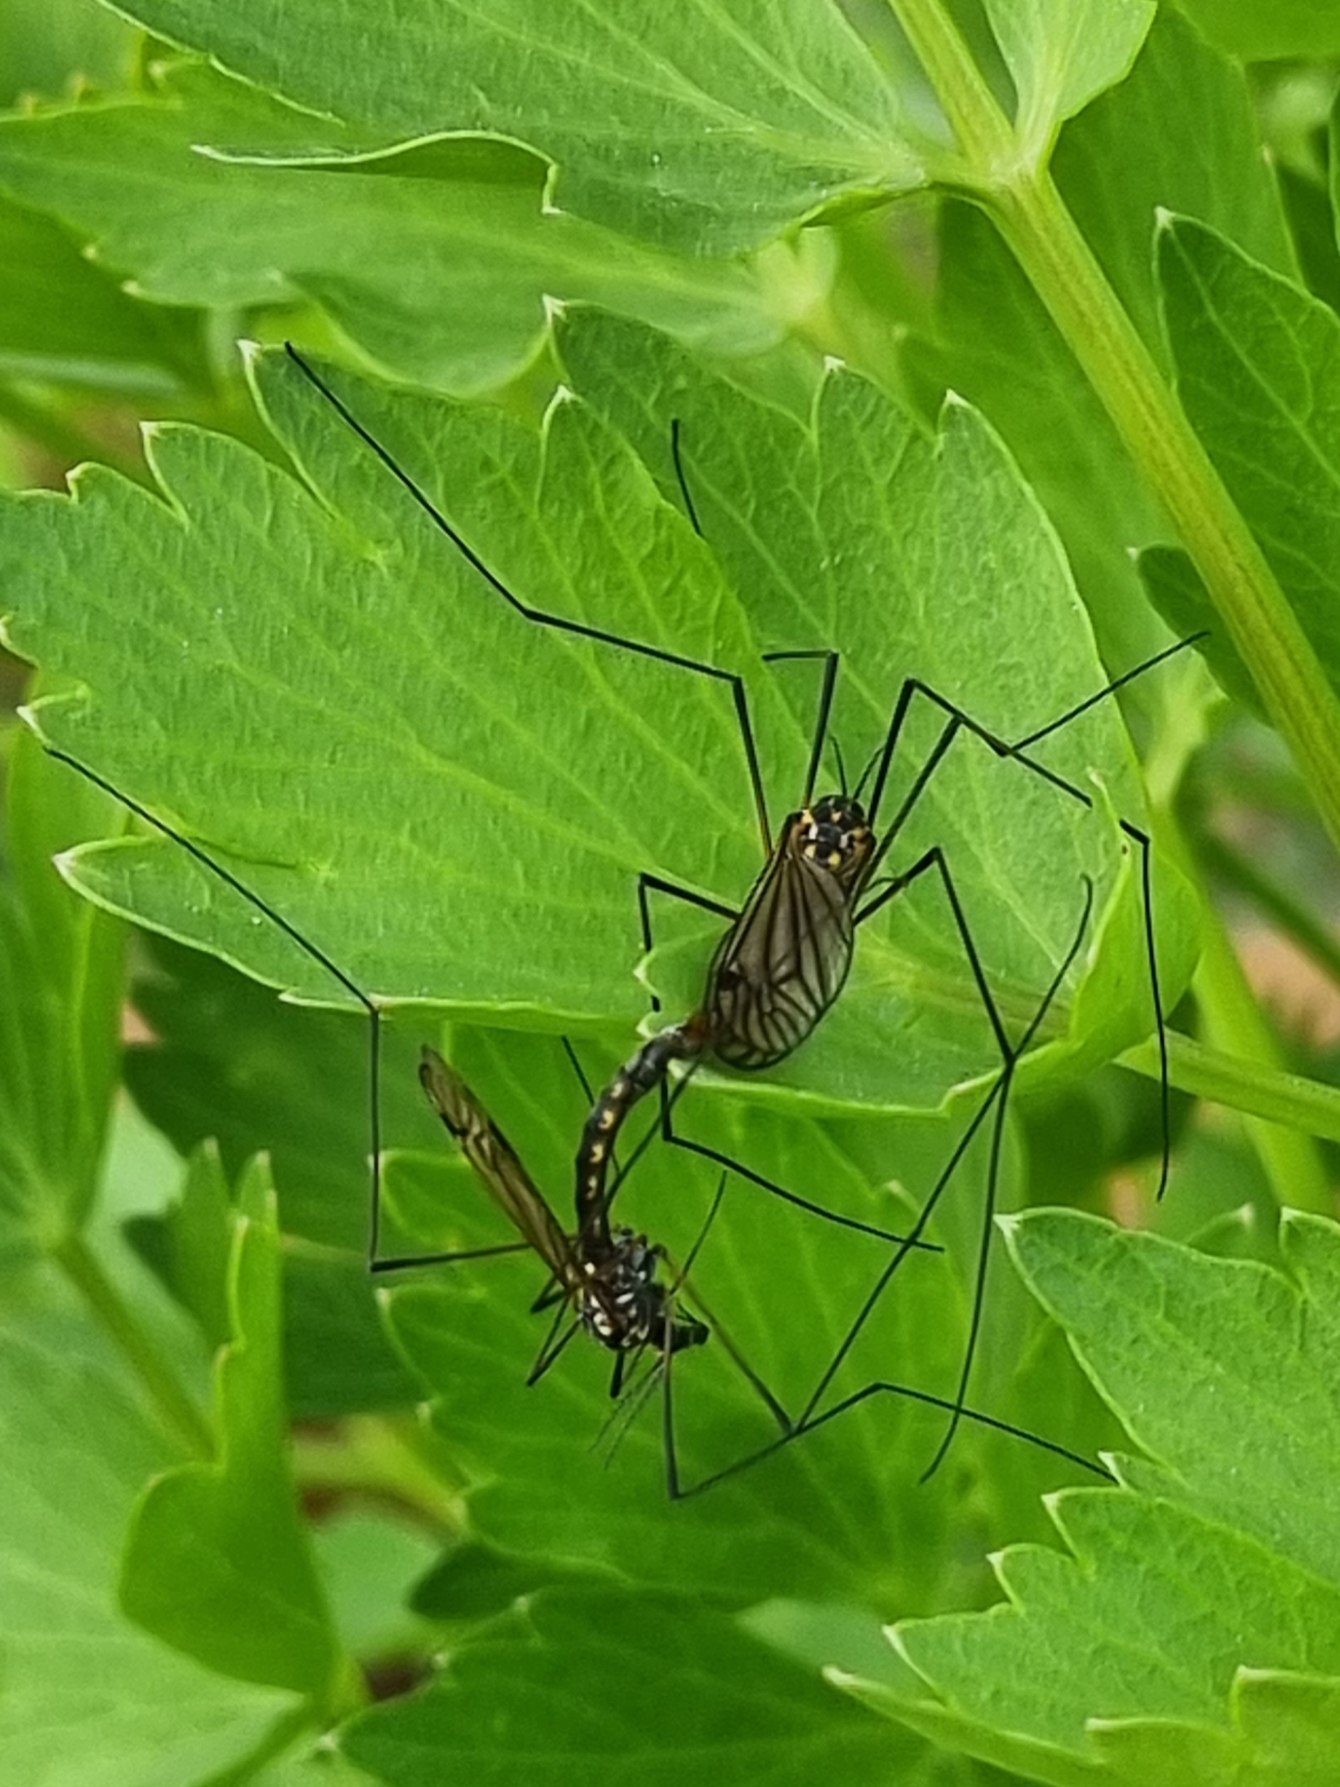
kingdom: Animalia
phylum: Arthropoda
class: Insecta
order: Diptera
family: Tipulidae
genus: Nephrotoma
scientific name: Nephrotoma pratensis
